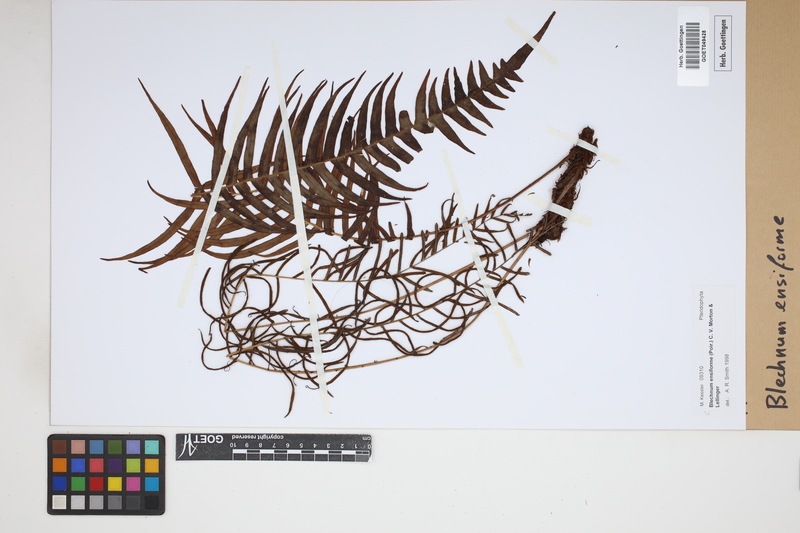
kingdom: Plantae
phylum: Tracheophyta
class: Polypodiopsida
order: Polypodiales
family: Blechnaceae
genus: Lomaridium
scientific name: Lomaridium ensiforme
